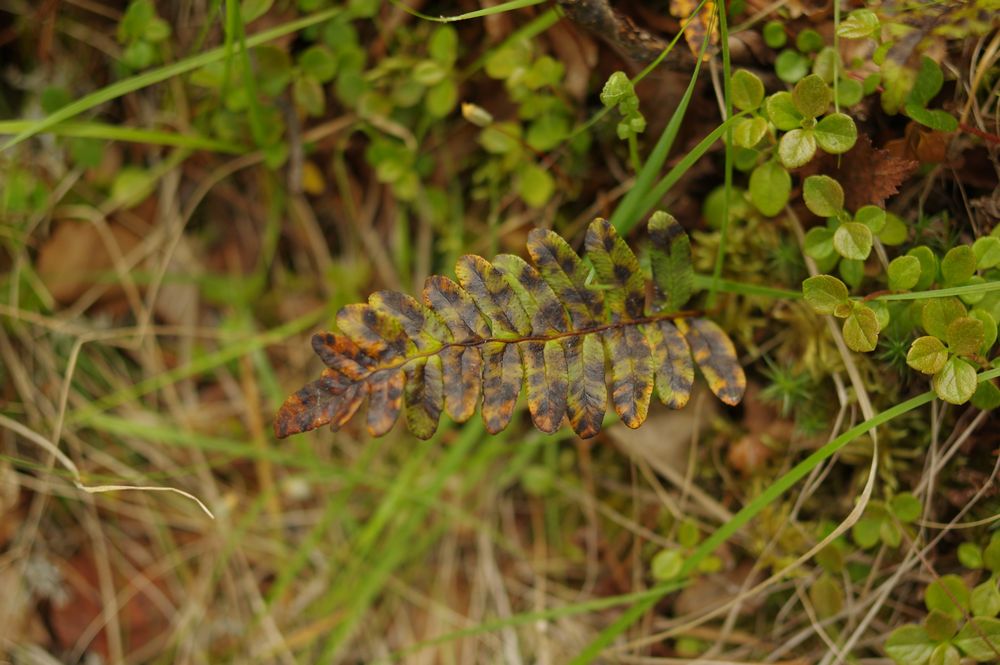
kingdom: Plantae
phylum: Tracheophyta
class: Polypodiopsida
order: Polypodiales
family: Polypodiaceae
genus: Polypodium
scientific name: Polypodium vulgare
